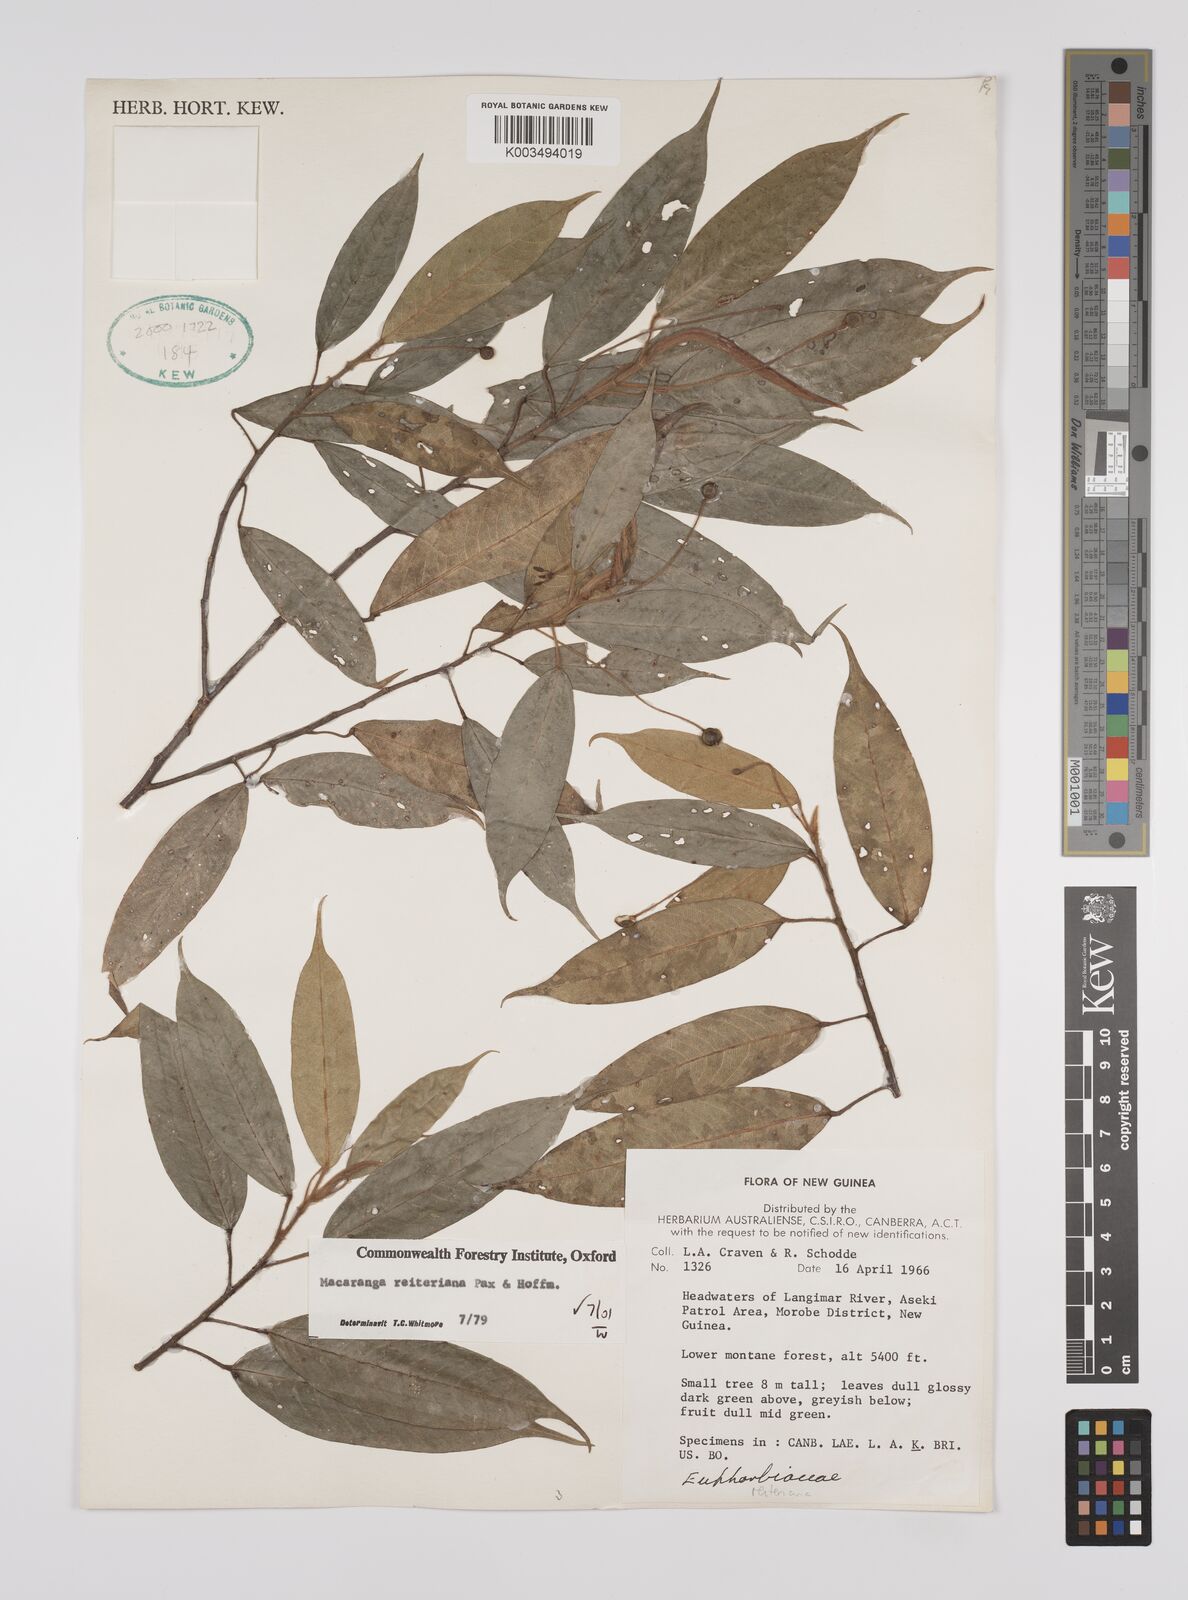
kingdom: Plantae
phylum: Tracheophyta
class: Magnoliopsida
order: Malpighiales
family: Euphorbiaceae
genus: Macaranga
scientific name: Macaranga reiteriana
